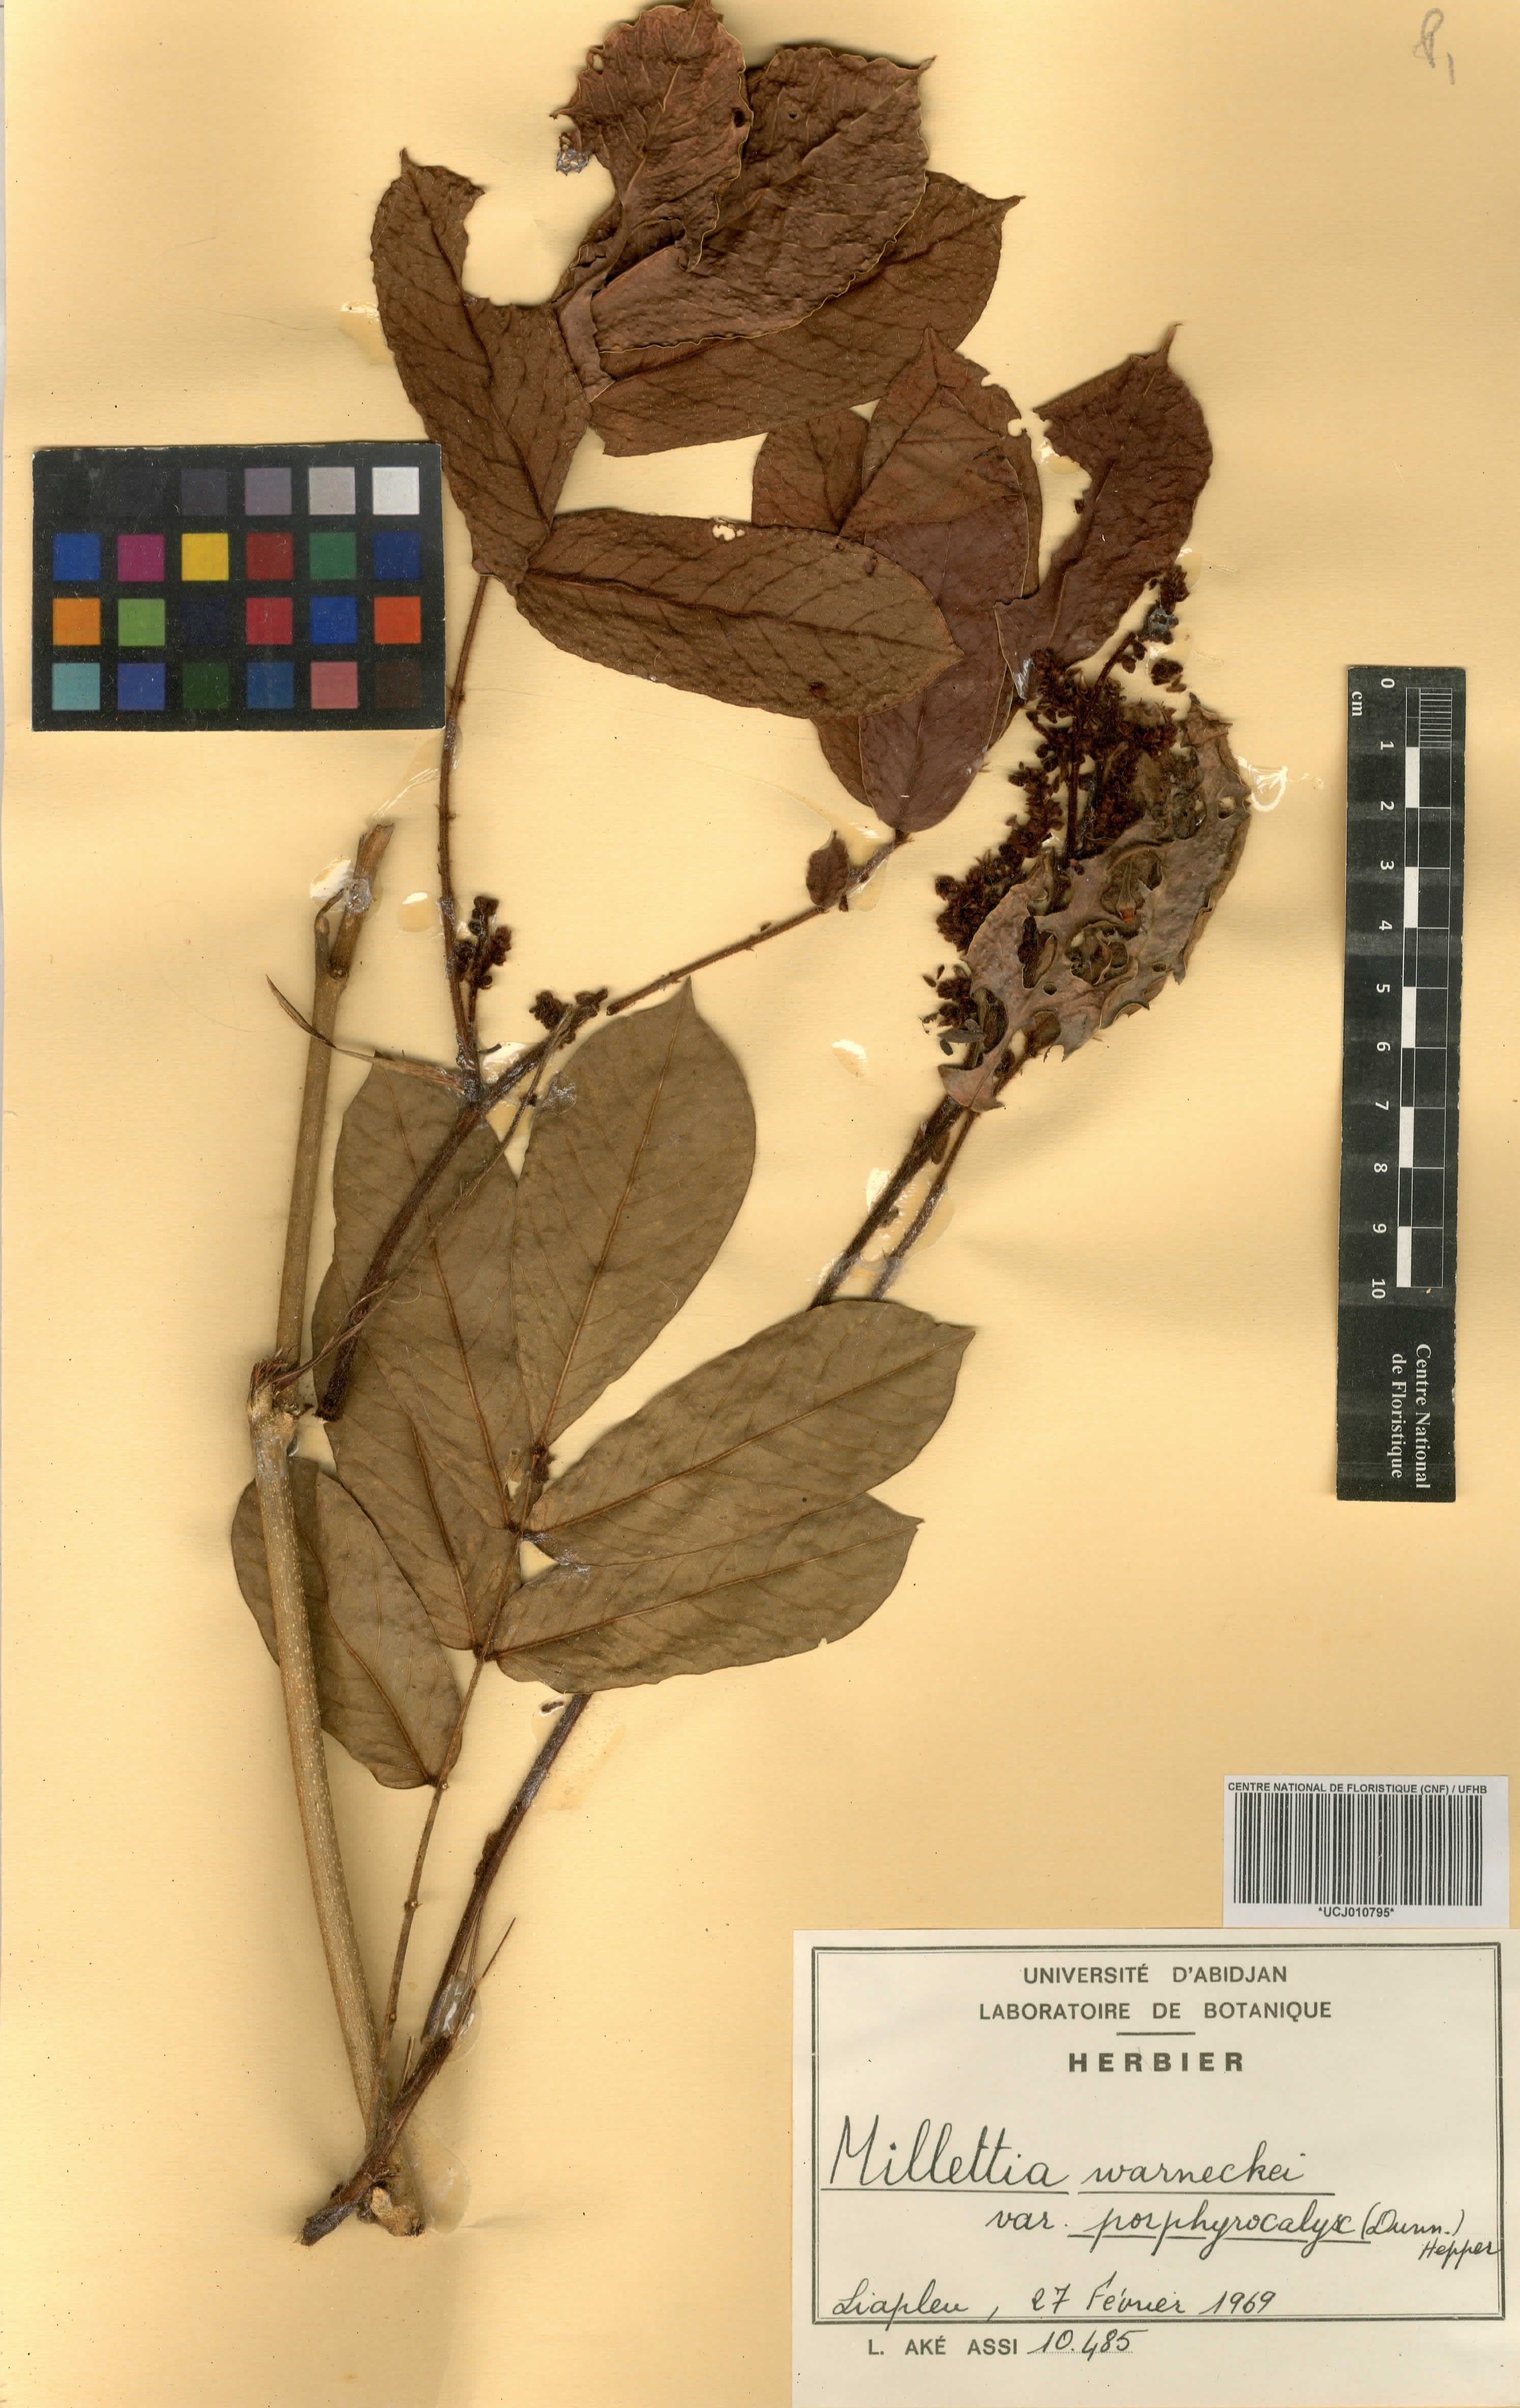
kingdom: Plantae
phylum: Tracheophyta
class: Magnoliopsida
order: Fabales
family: Fabaceae
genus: Millettia
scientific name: Millettia warneckei
